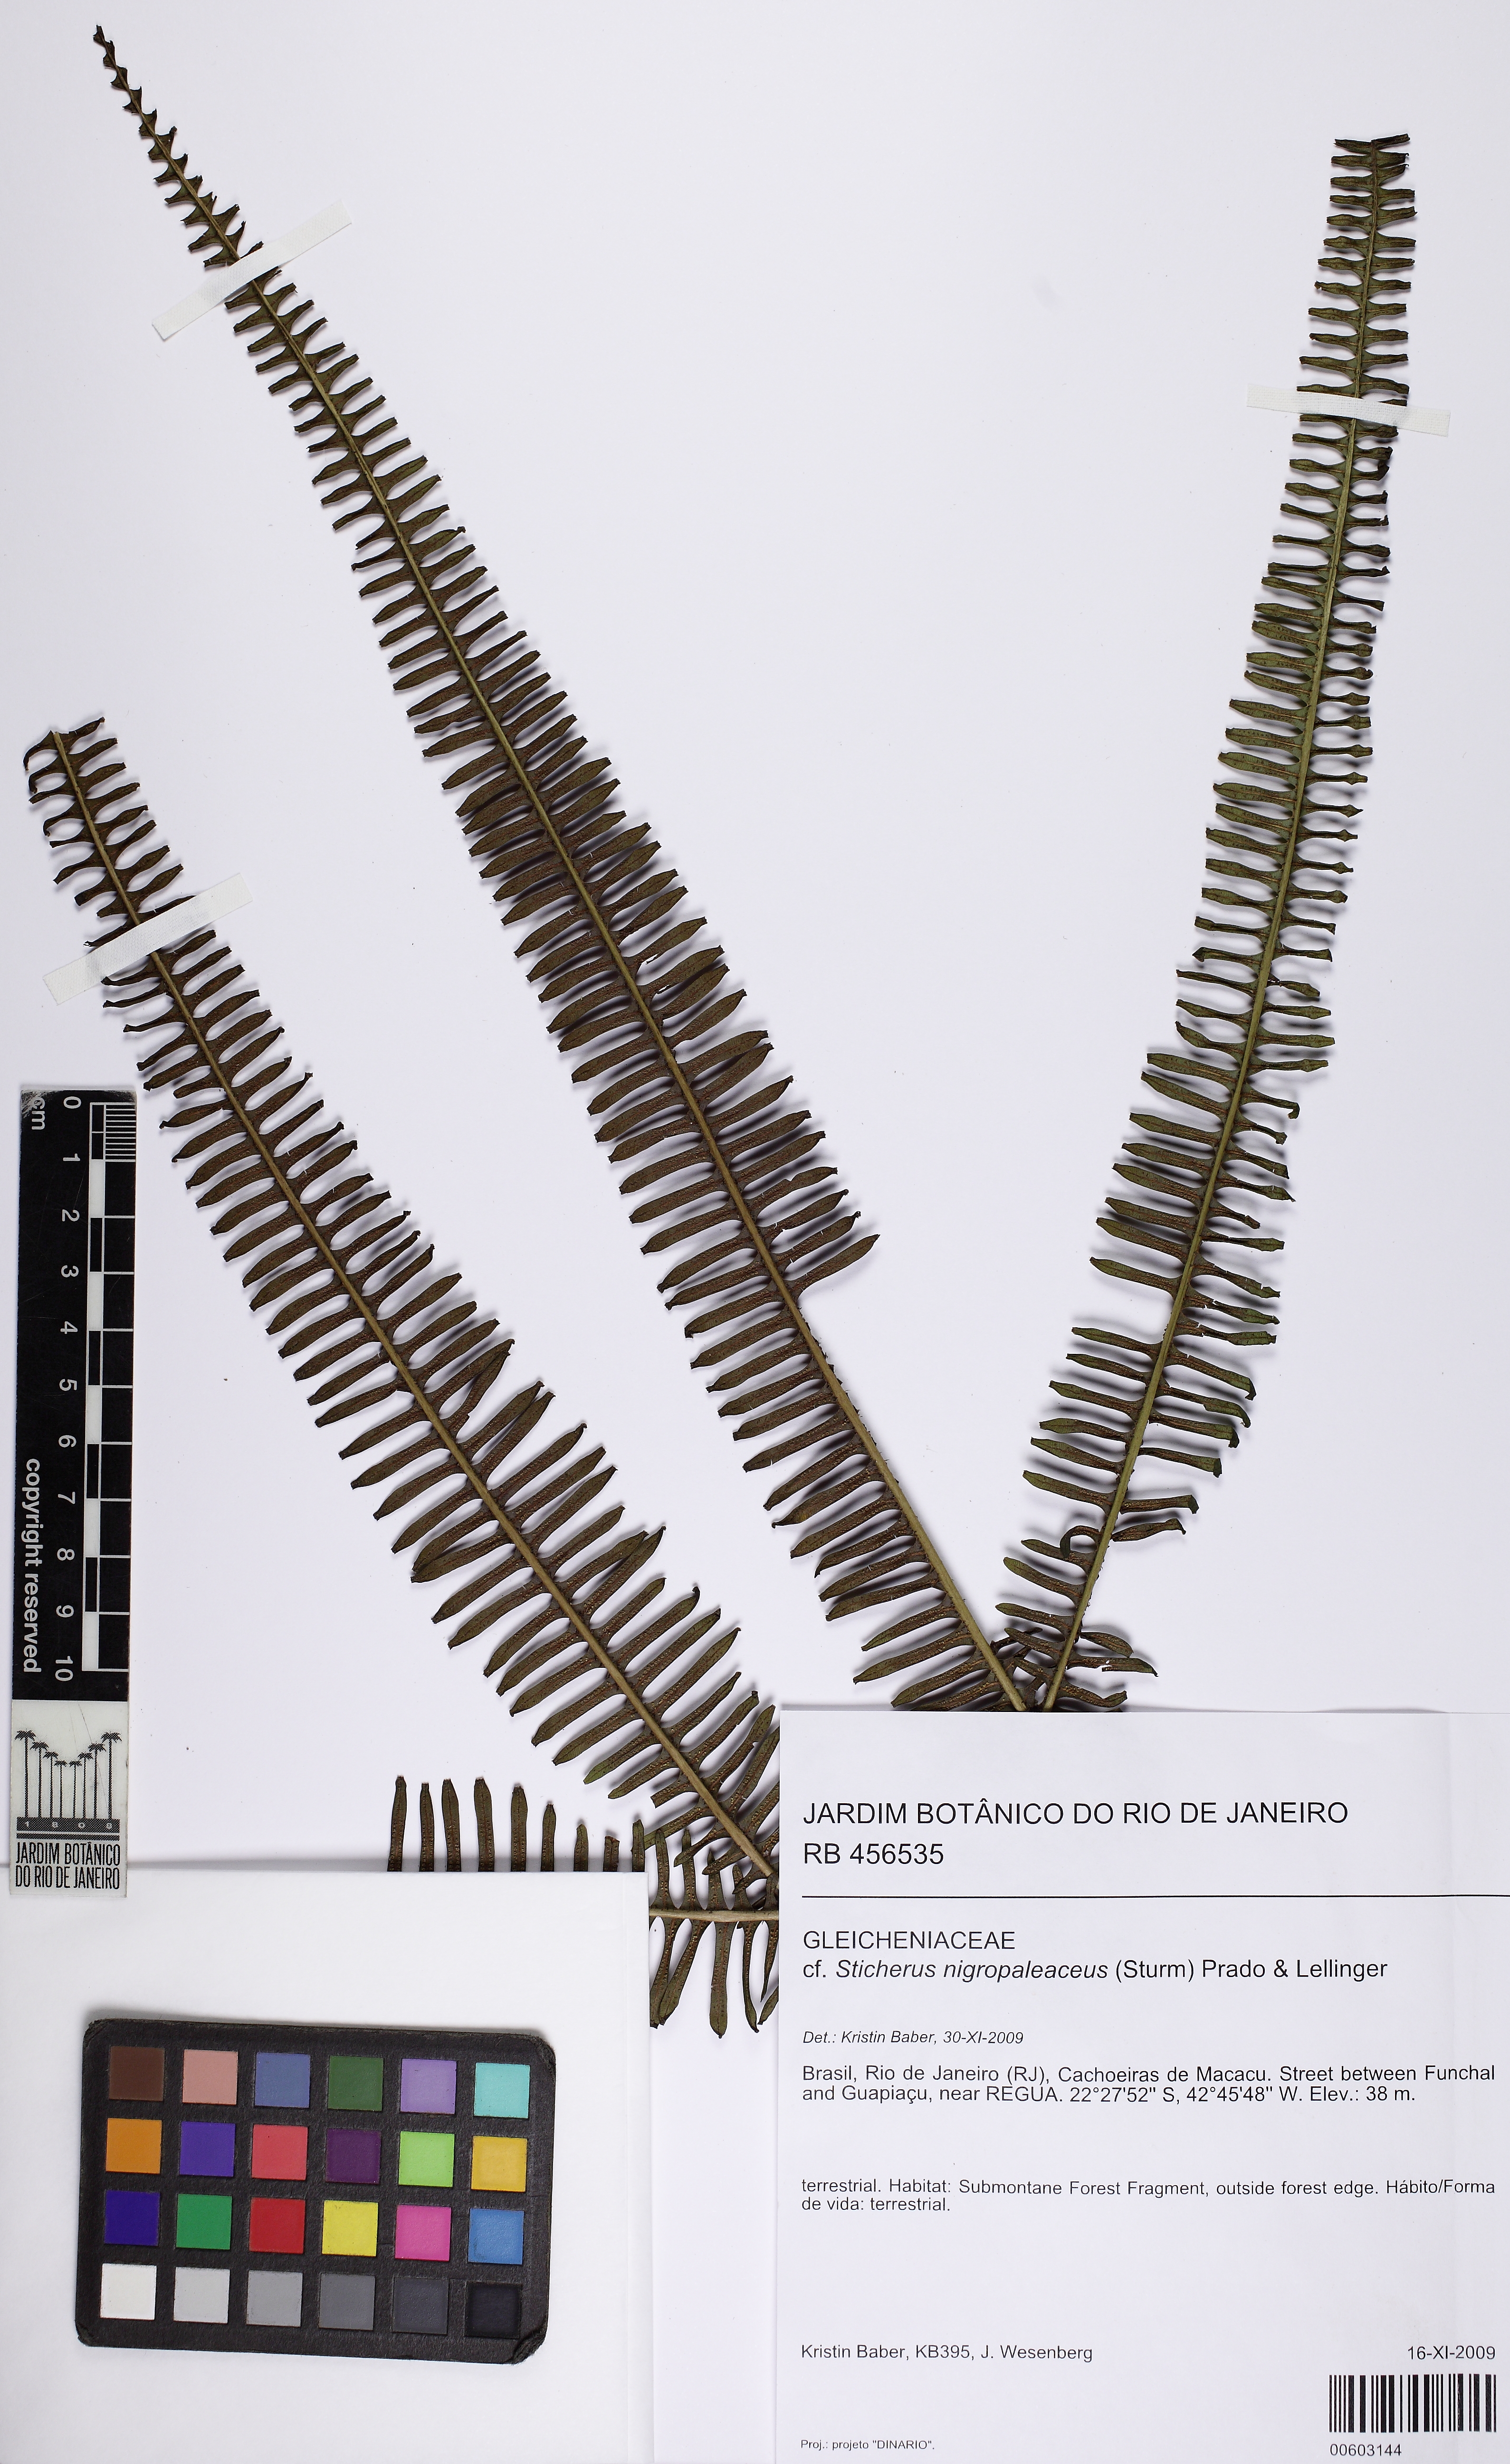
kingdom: Plantae
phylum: Tracheophyta
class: Polypodiopsida
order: Gleicheniales
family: Gleicheniaceae
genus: Sticherus
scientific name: Sticherus nigropaleaceus
